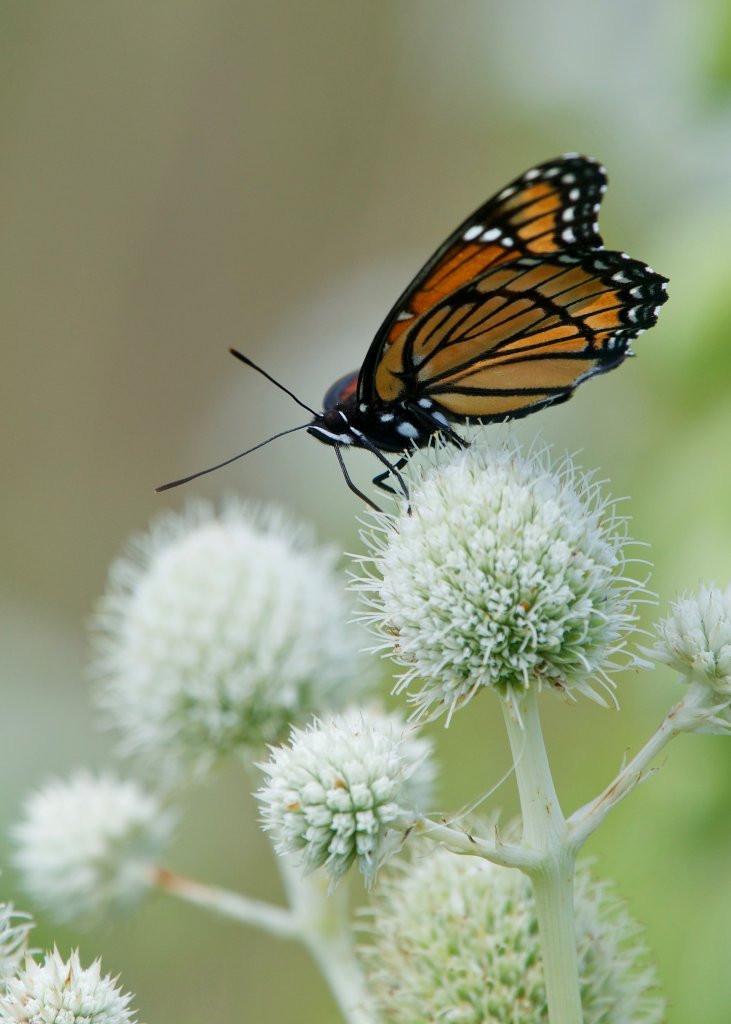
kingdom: Animalia
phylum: Arthropoda
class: Insecta
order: Lepidoptera
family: Nymphalidae
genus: Limenitis
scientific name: Limenitis archippus
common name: Viceroy
